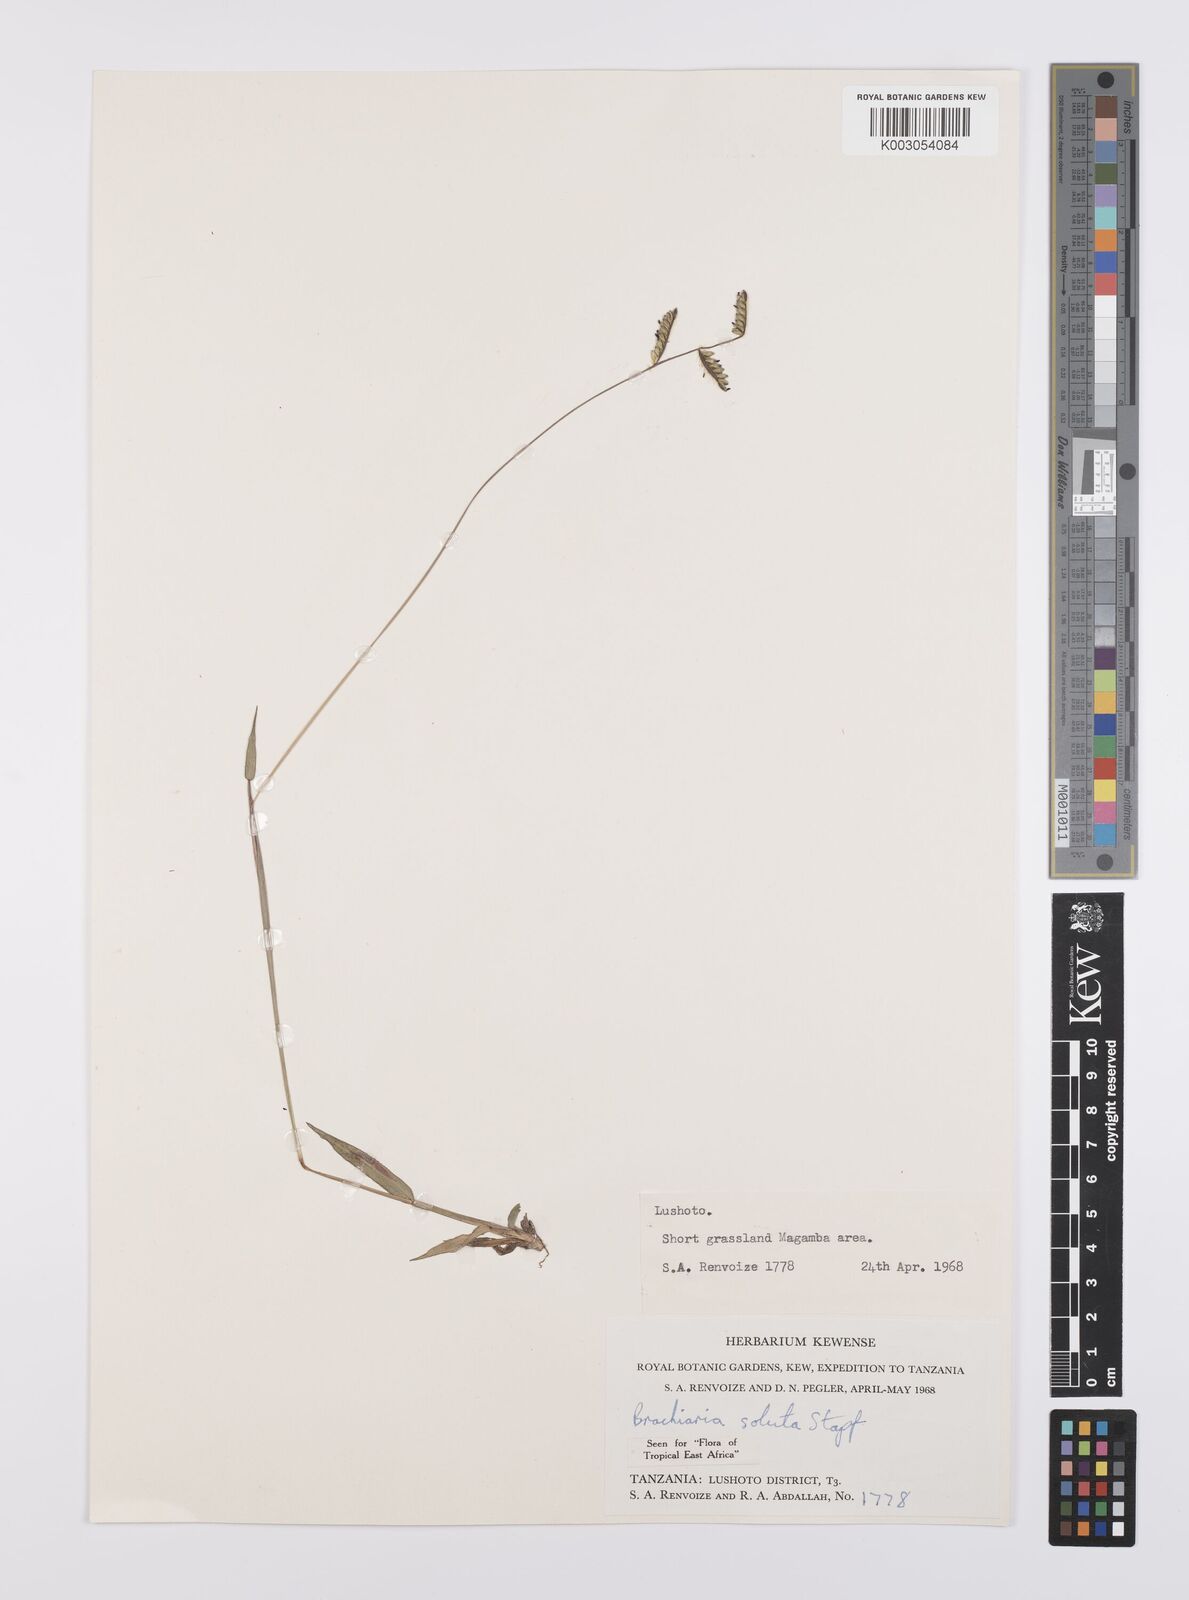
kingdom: Plantae
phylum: Tracheophyta
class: Liliopsida
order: Poales
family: Poaceae
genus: Urochloa
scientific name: Urochloa jubata
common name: Buffalograss
